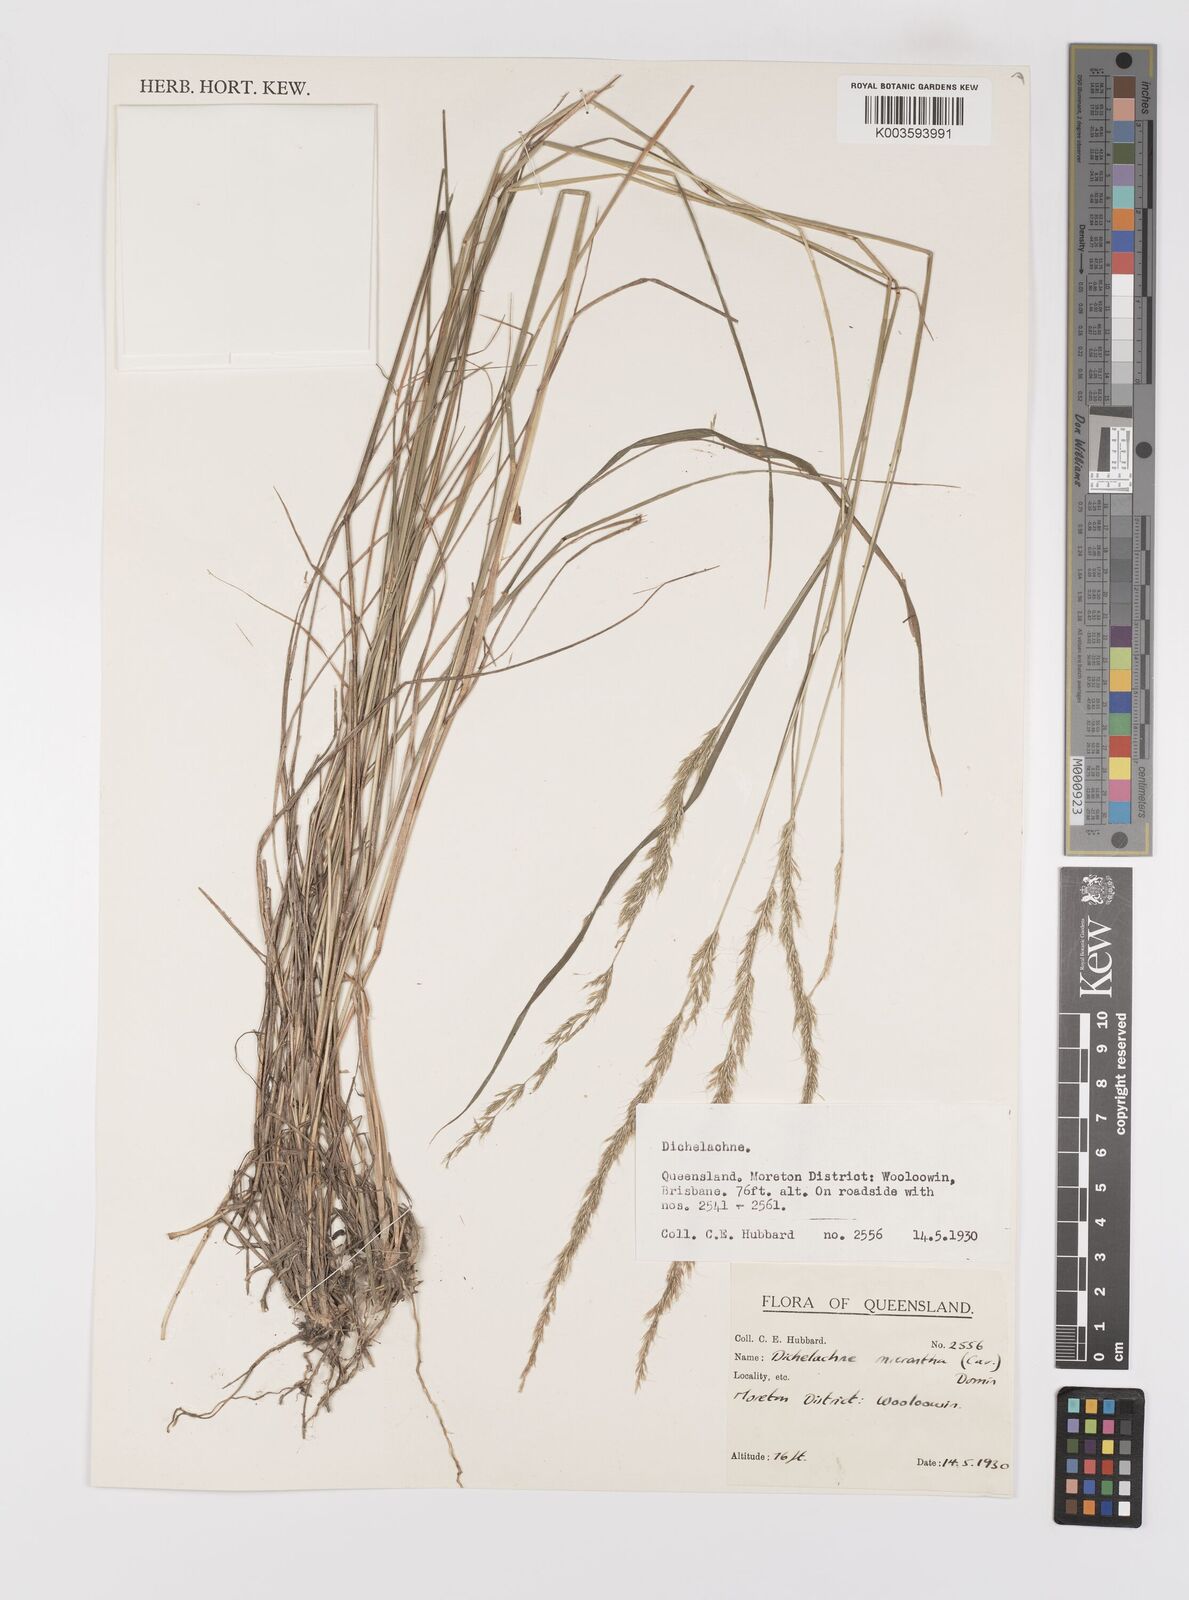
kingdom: Plantae
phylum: Tracheophyta
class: Liliopsida
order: Poales
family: Poaceae
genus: Dichelachne
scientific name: Dichelachne micrantha
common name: Plumegrass
